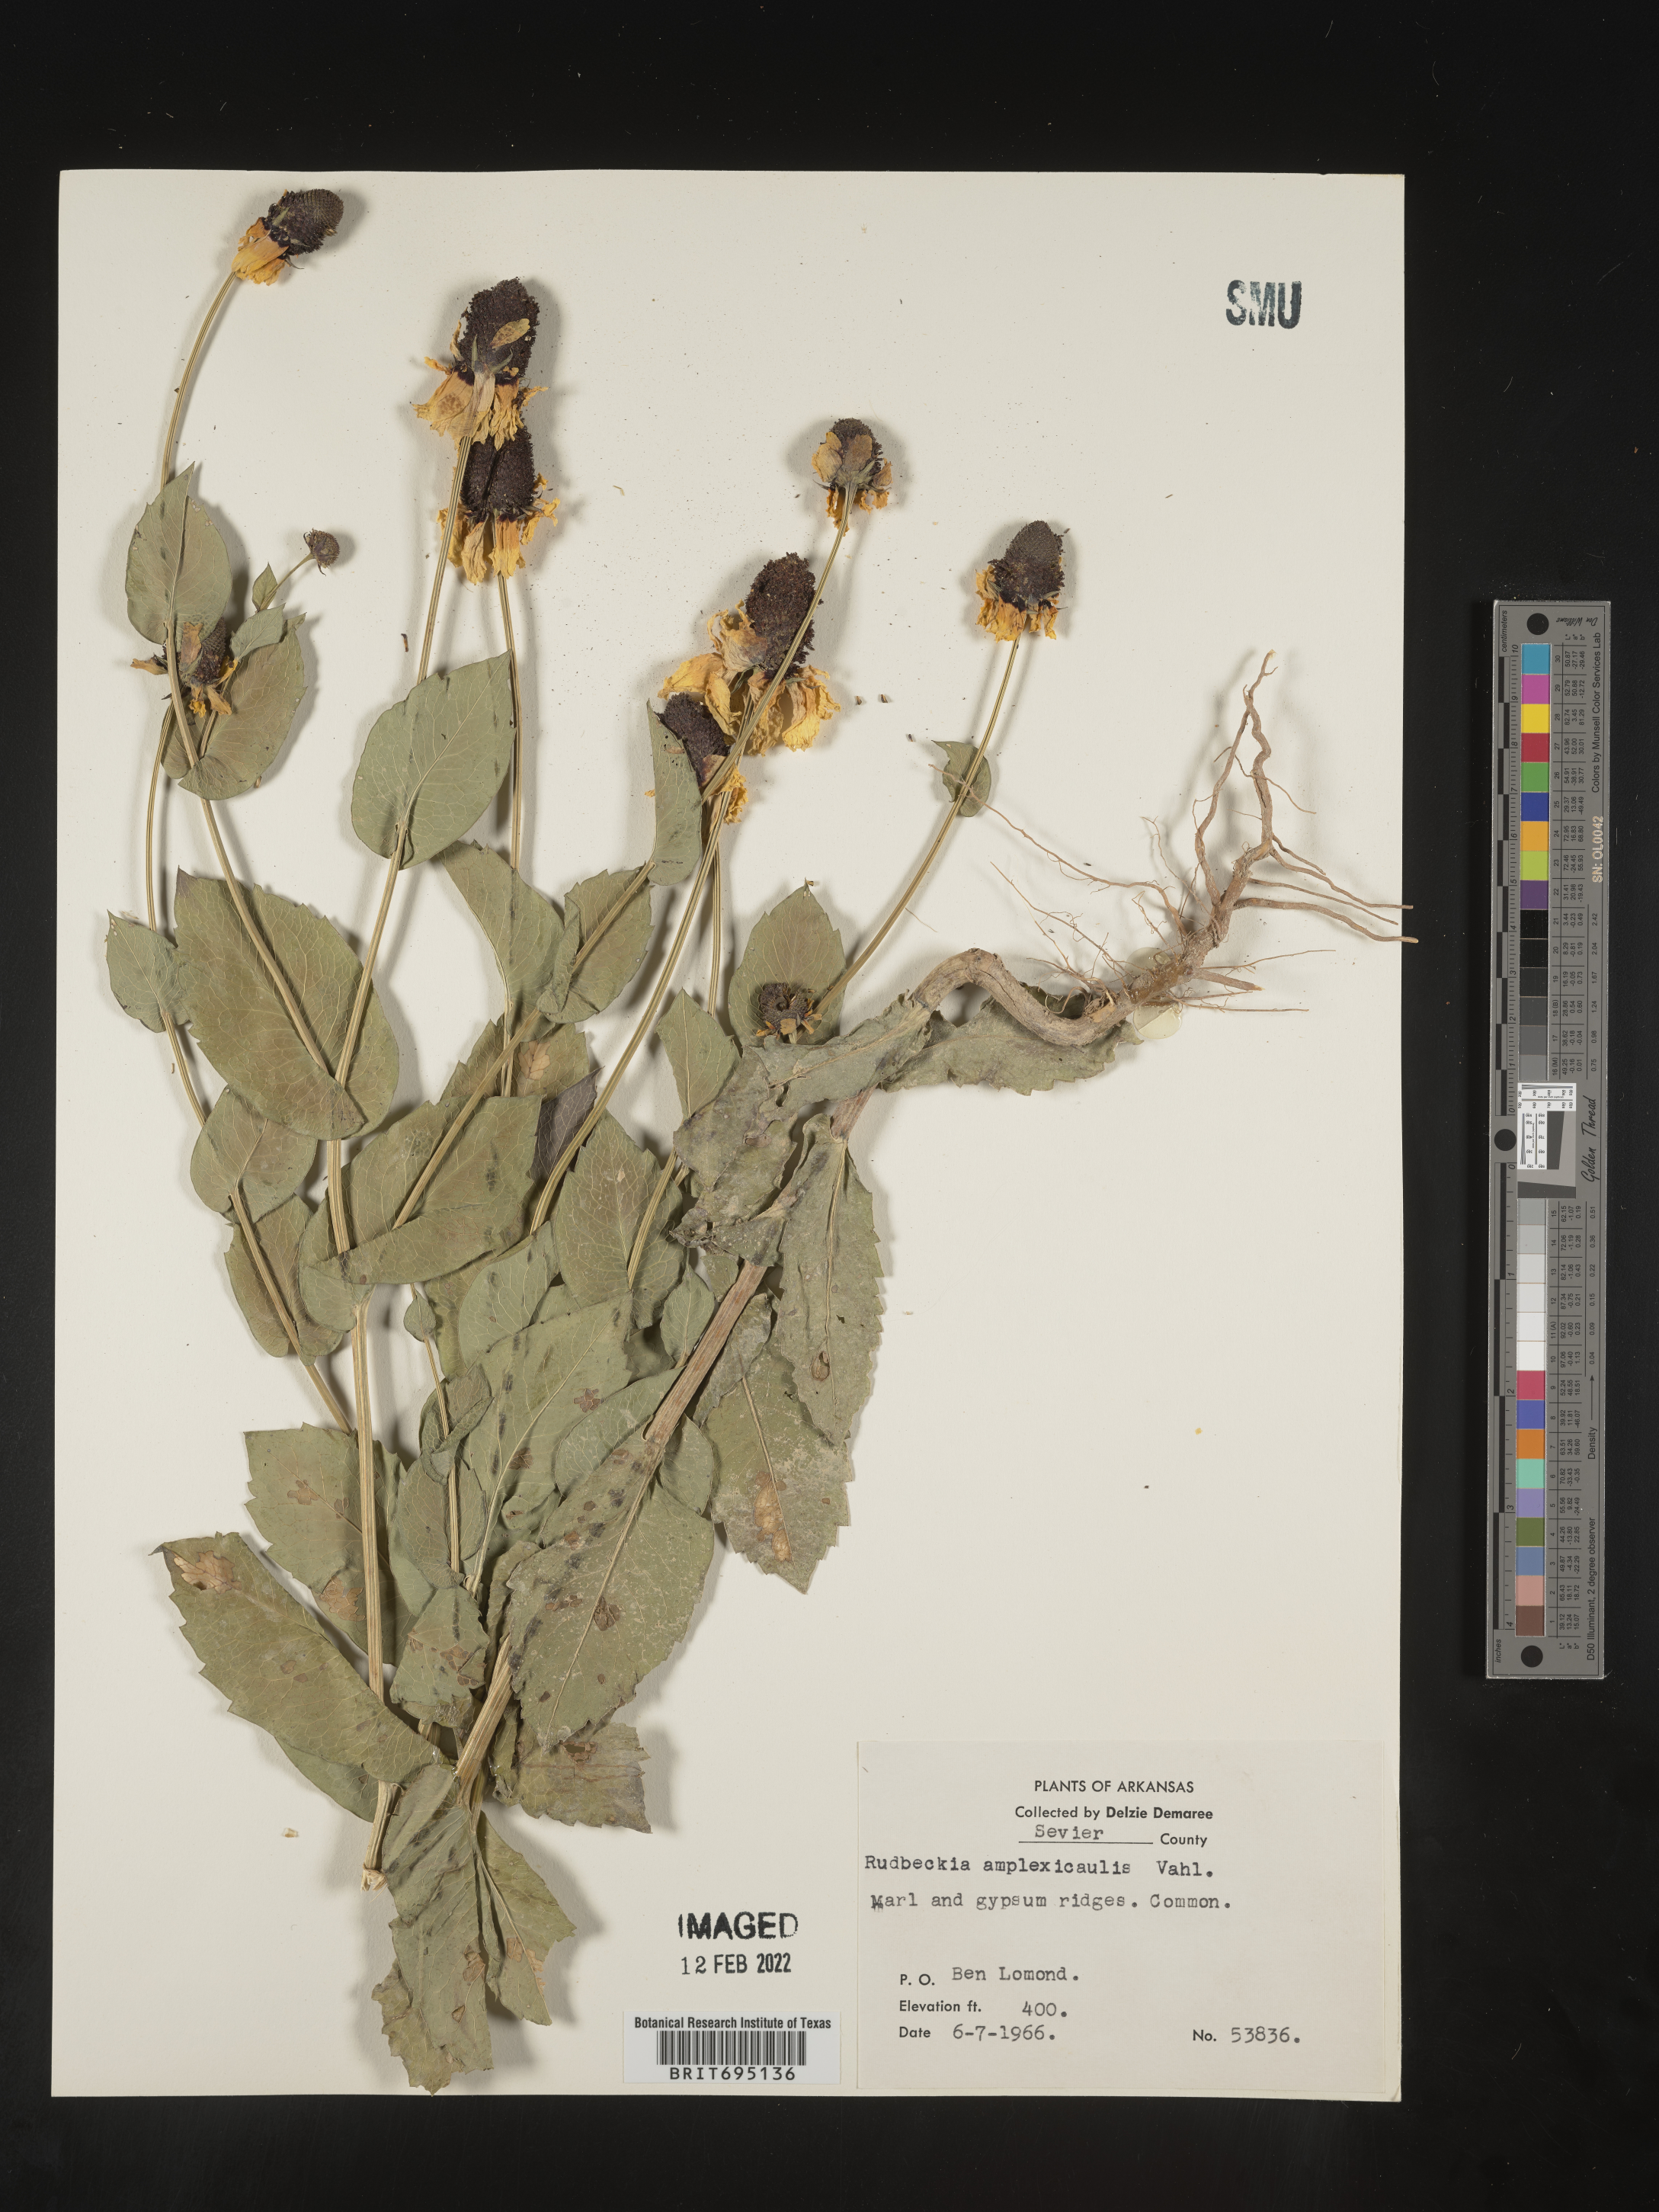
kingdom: Plantae
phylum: Tracheophyta
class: Magnoliopsida
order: Asterales
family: Asteraceae
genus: Rudbeckia
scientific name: Rudbeckia amplexicaulis
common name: Clasping-leaf coneflower
